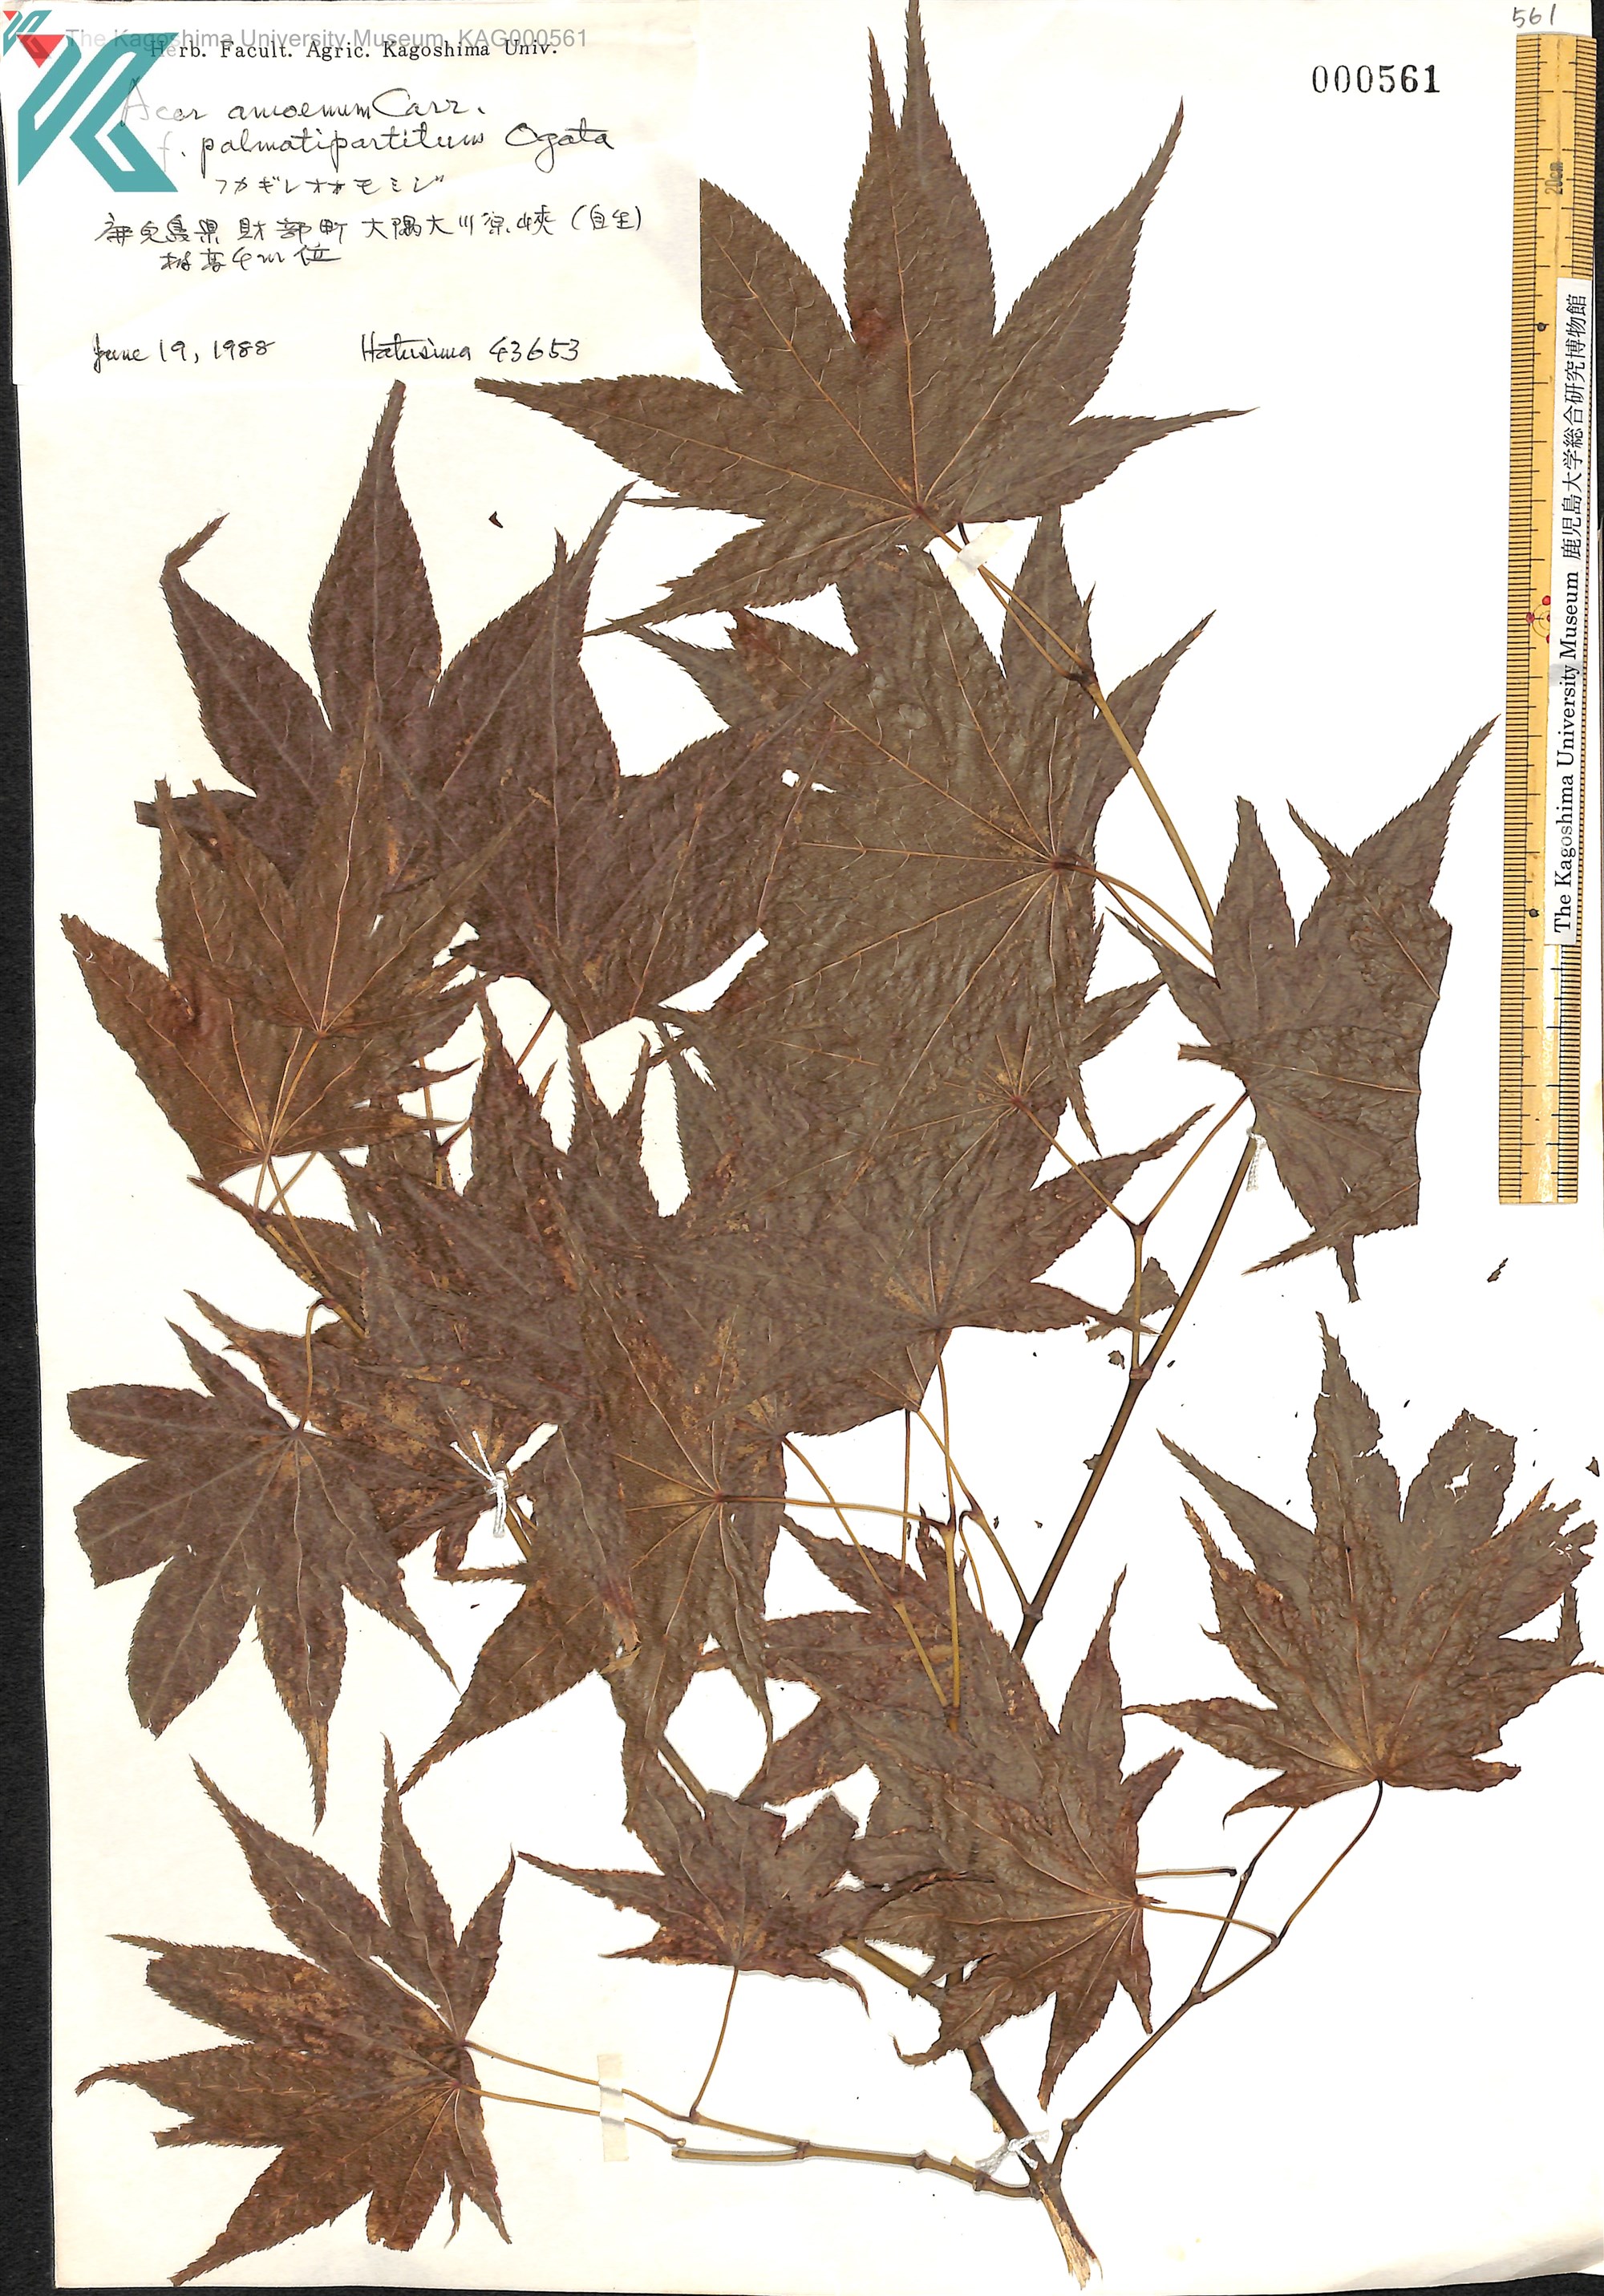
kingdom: Plantae
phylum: Tracheophyta
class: Magnoliopsida
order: Sapindales
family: Sapindaceae
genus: Acer
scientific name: Acer palmatum
